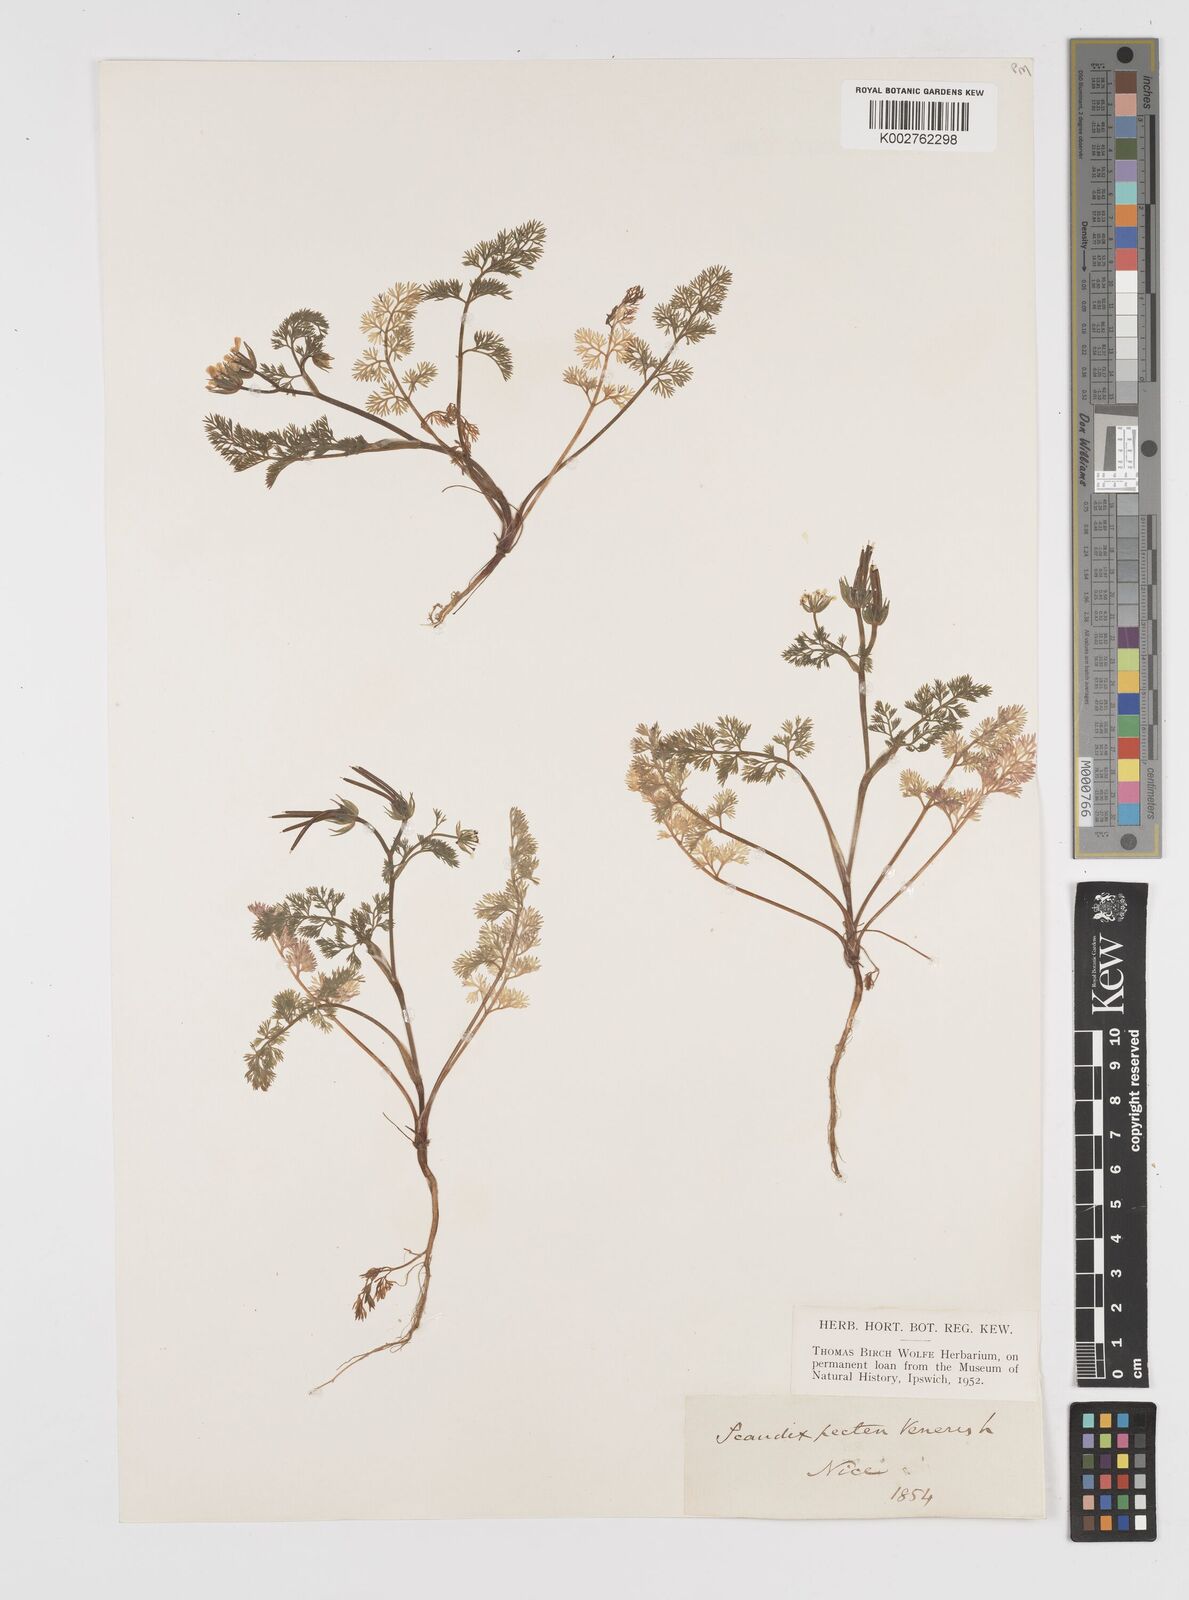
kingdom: Plantae
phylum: Tracheophyta
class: Magnoliopsida
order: Apiales
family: Apiaceae
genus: Scandix
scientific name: Scandix pecten-veneris
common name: Shepherd's-needle
